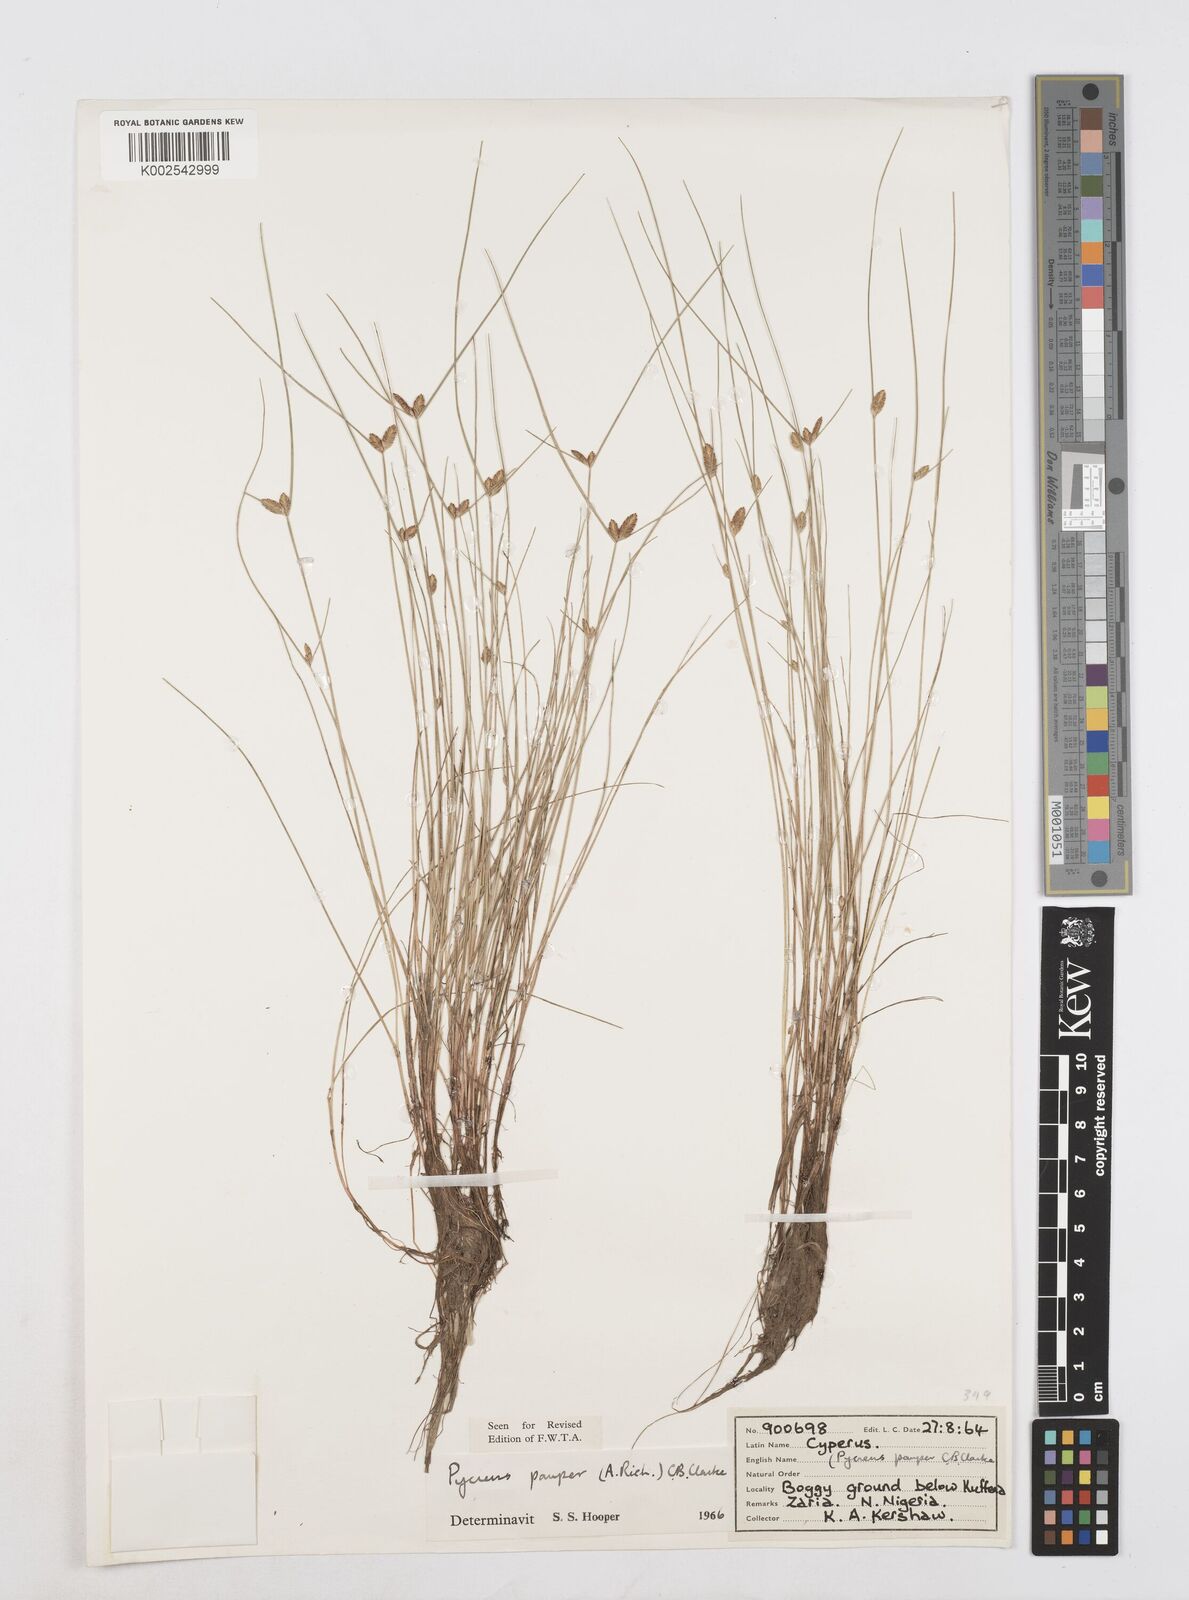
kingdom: Plantae
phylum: Tracheophyta
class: Liliopsida
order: Poales
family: Cyperaceae
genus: Cyperus
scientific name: Cyperus pauper
